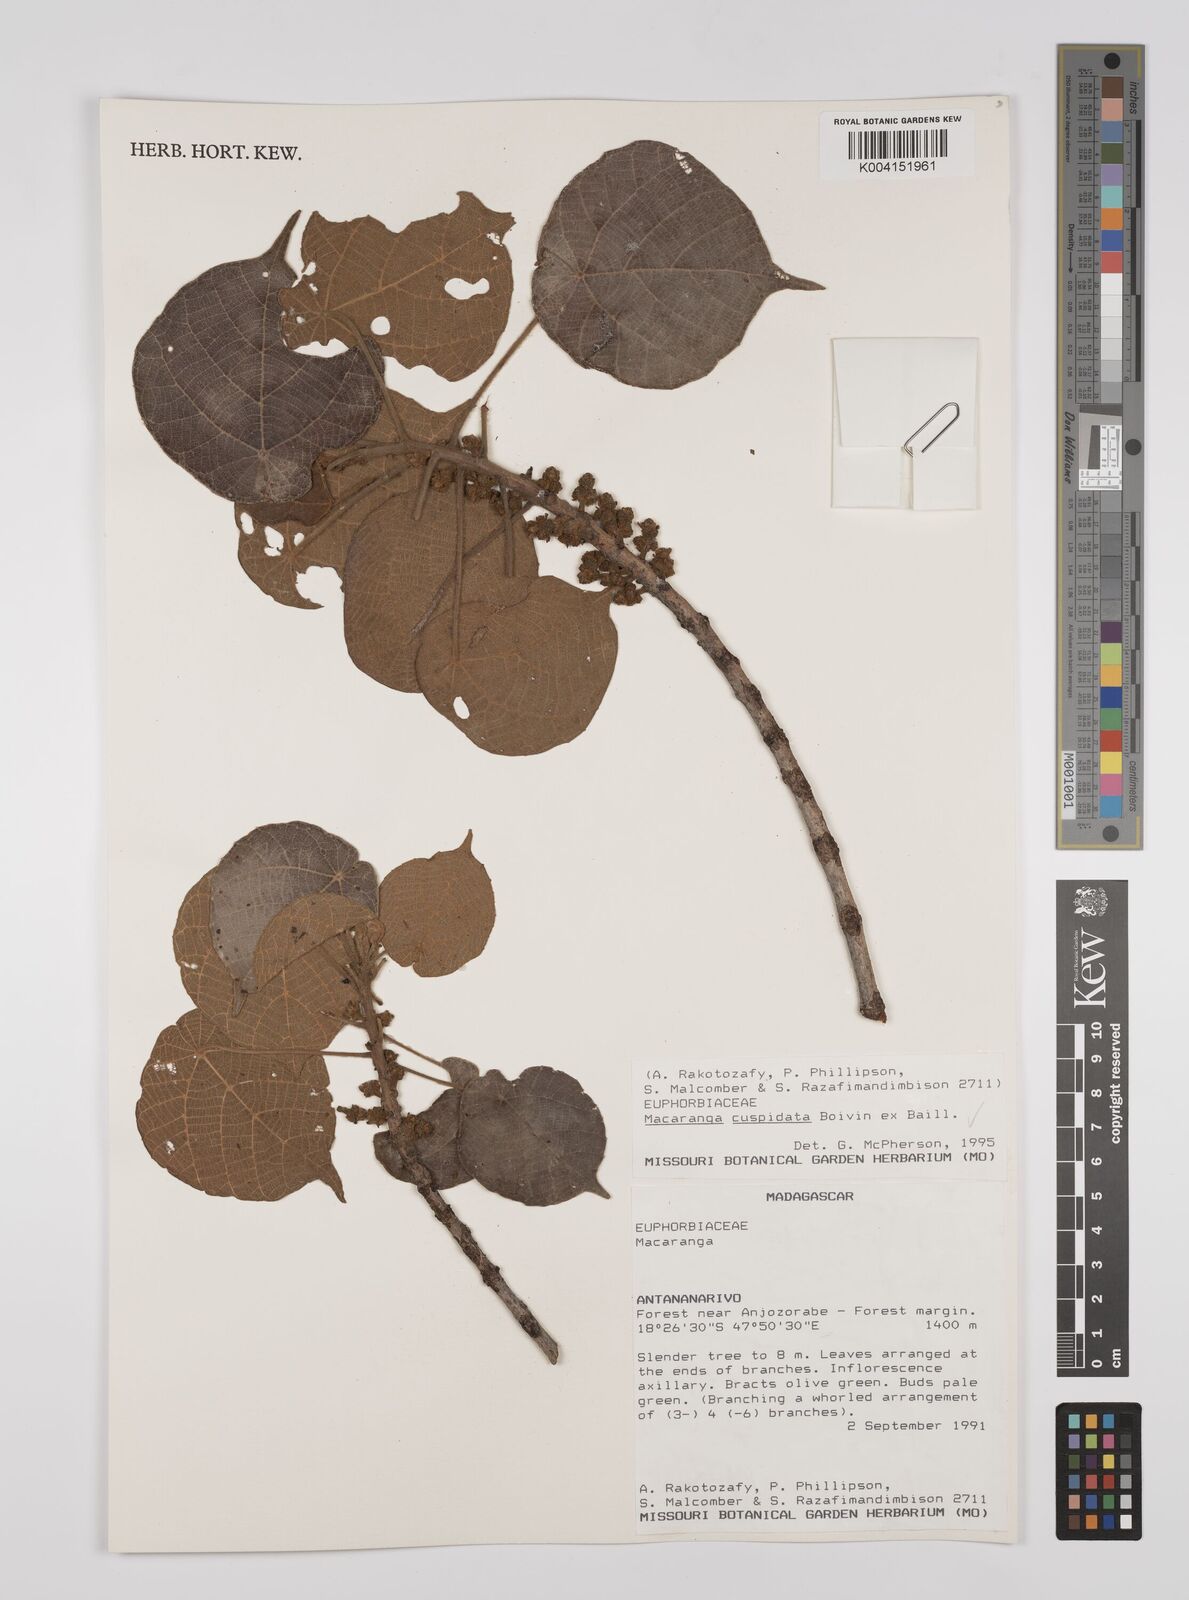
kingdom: Plantae
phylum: Tracheophyta
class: Magnoliopsida
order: Malpighiales
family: Euphorbiaceae
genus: Macaranga
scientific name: Macaranga cuspidata
